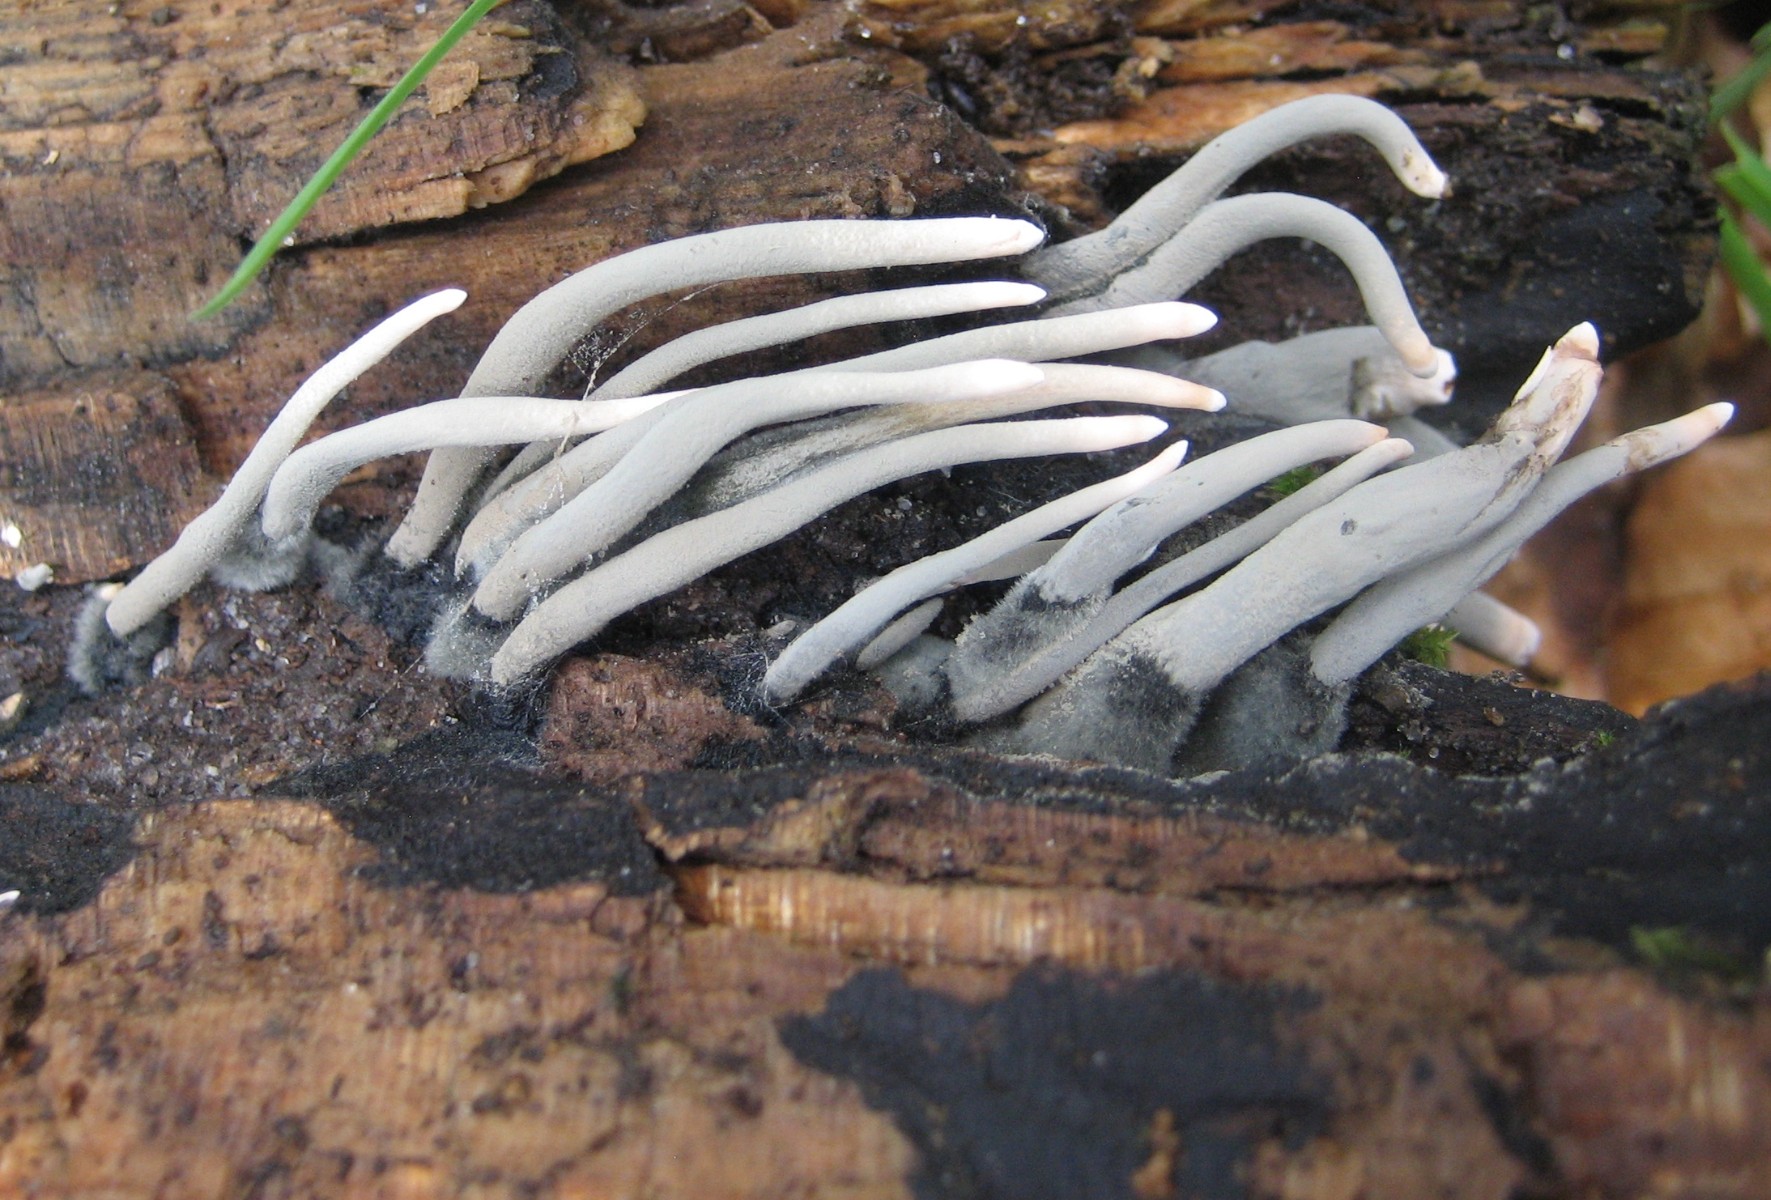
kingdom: Fungi
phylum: Ascomycota
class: Sordariomycetes
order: Xylariales
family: Xylariaceae
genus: Xylaria
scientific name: Xylaria hypoxylon
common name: grenet stødsvamp
